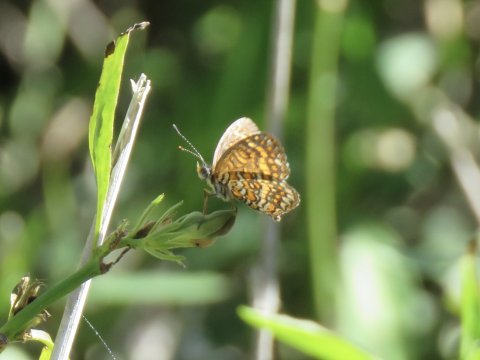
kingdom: Animalia
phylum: Arthropoda
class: Insecta
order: Lepidoptera
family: Nymphalidae
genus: Texola
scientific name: Texola elada
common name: Elada Checkerspot
